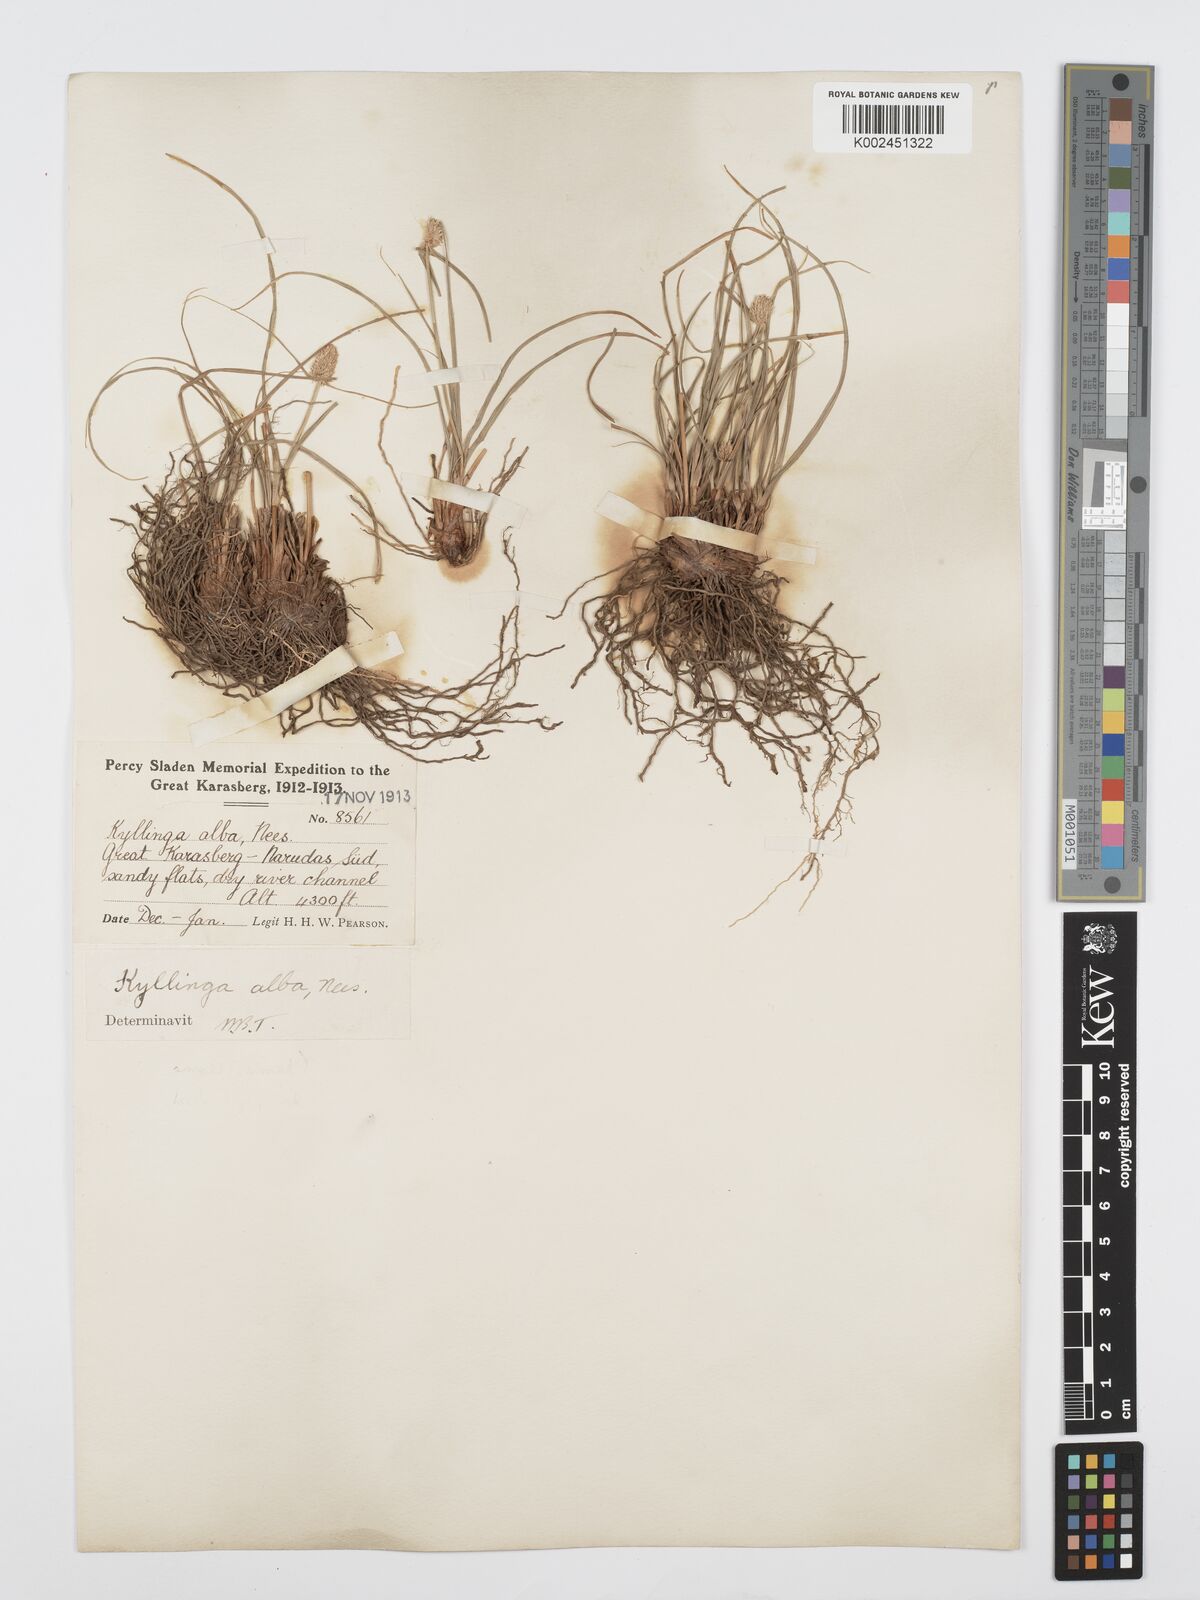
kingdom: Plantae
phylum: Tracheophyta
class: Liliopsida
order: Poales
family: Cyperaceae
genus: Cyperus
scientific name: Cyperus
